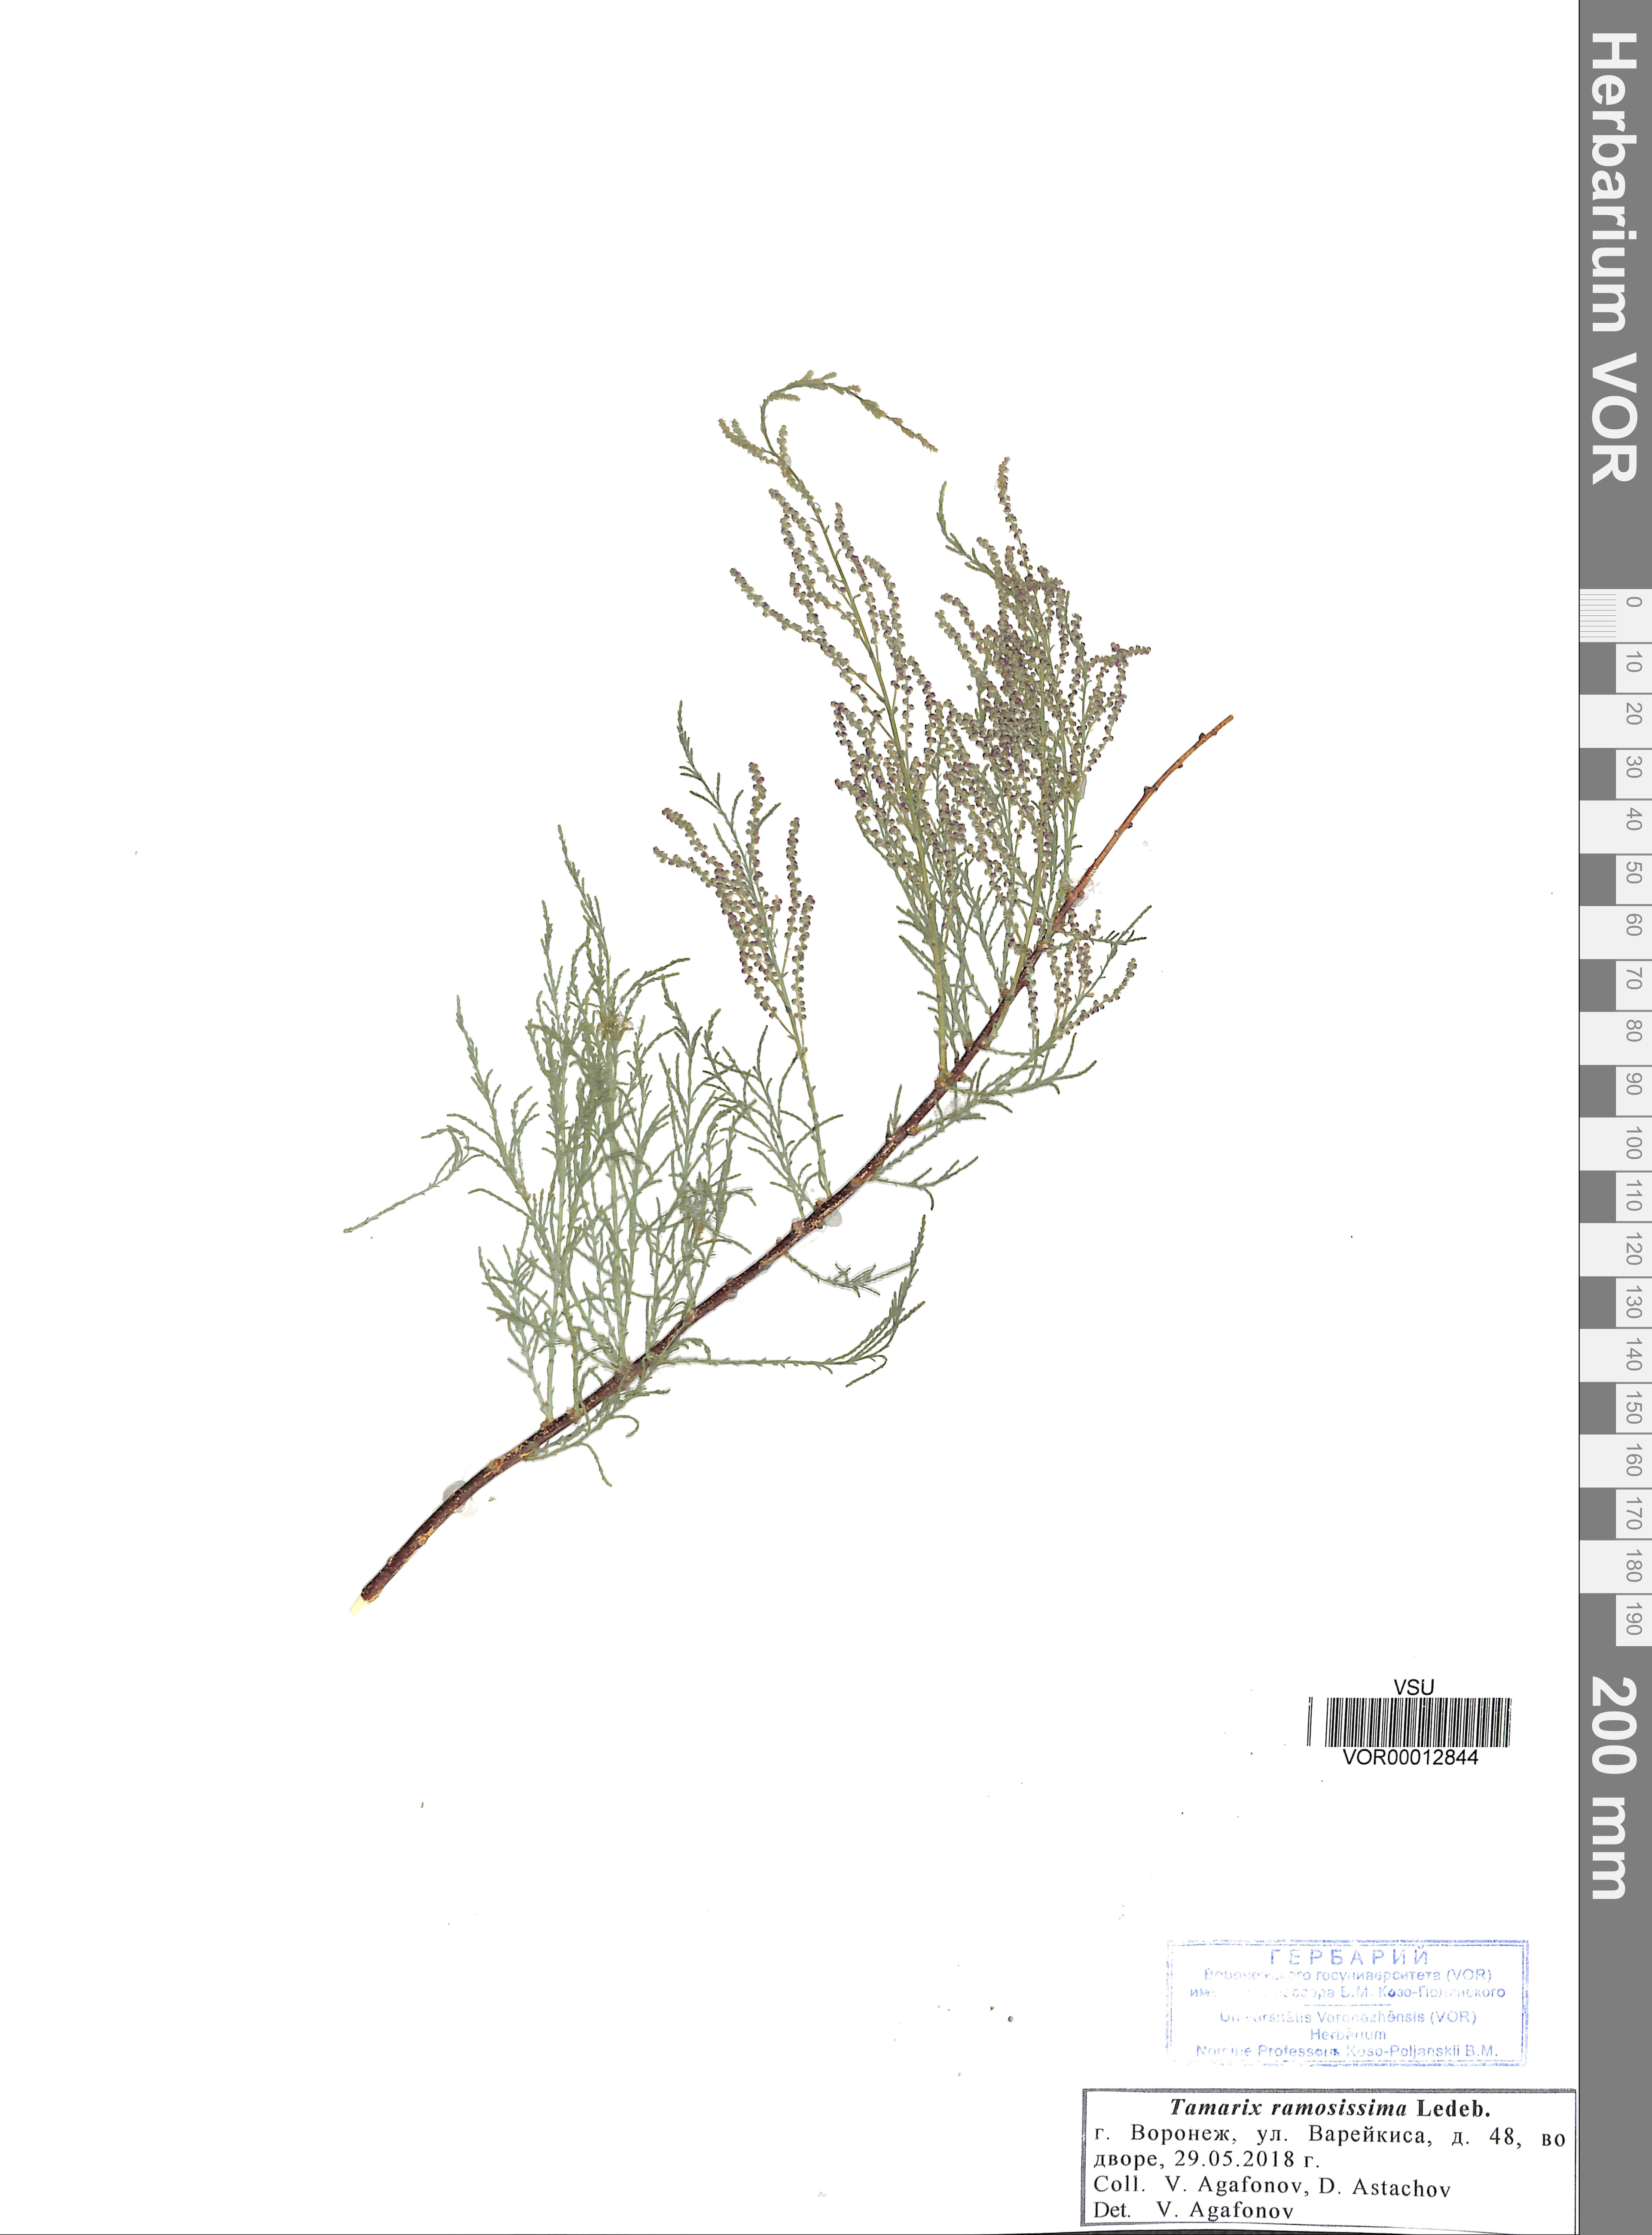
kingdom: Plantae
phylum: Tracheophyta
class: Magnoliopsida
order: Caryophyllales
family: Tamaricaceae
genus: Tamarix
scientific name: Tamarix ramosissima
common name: Pink tamarisk
